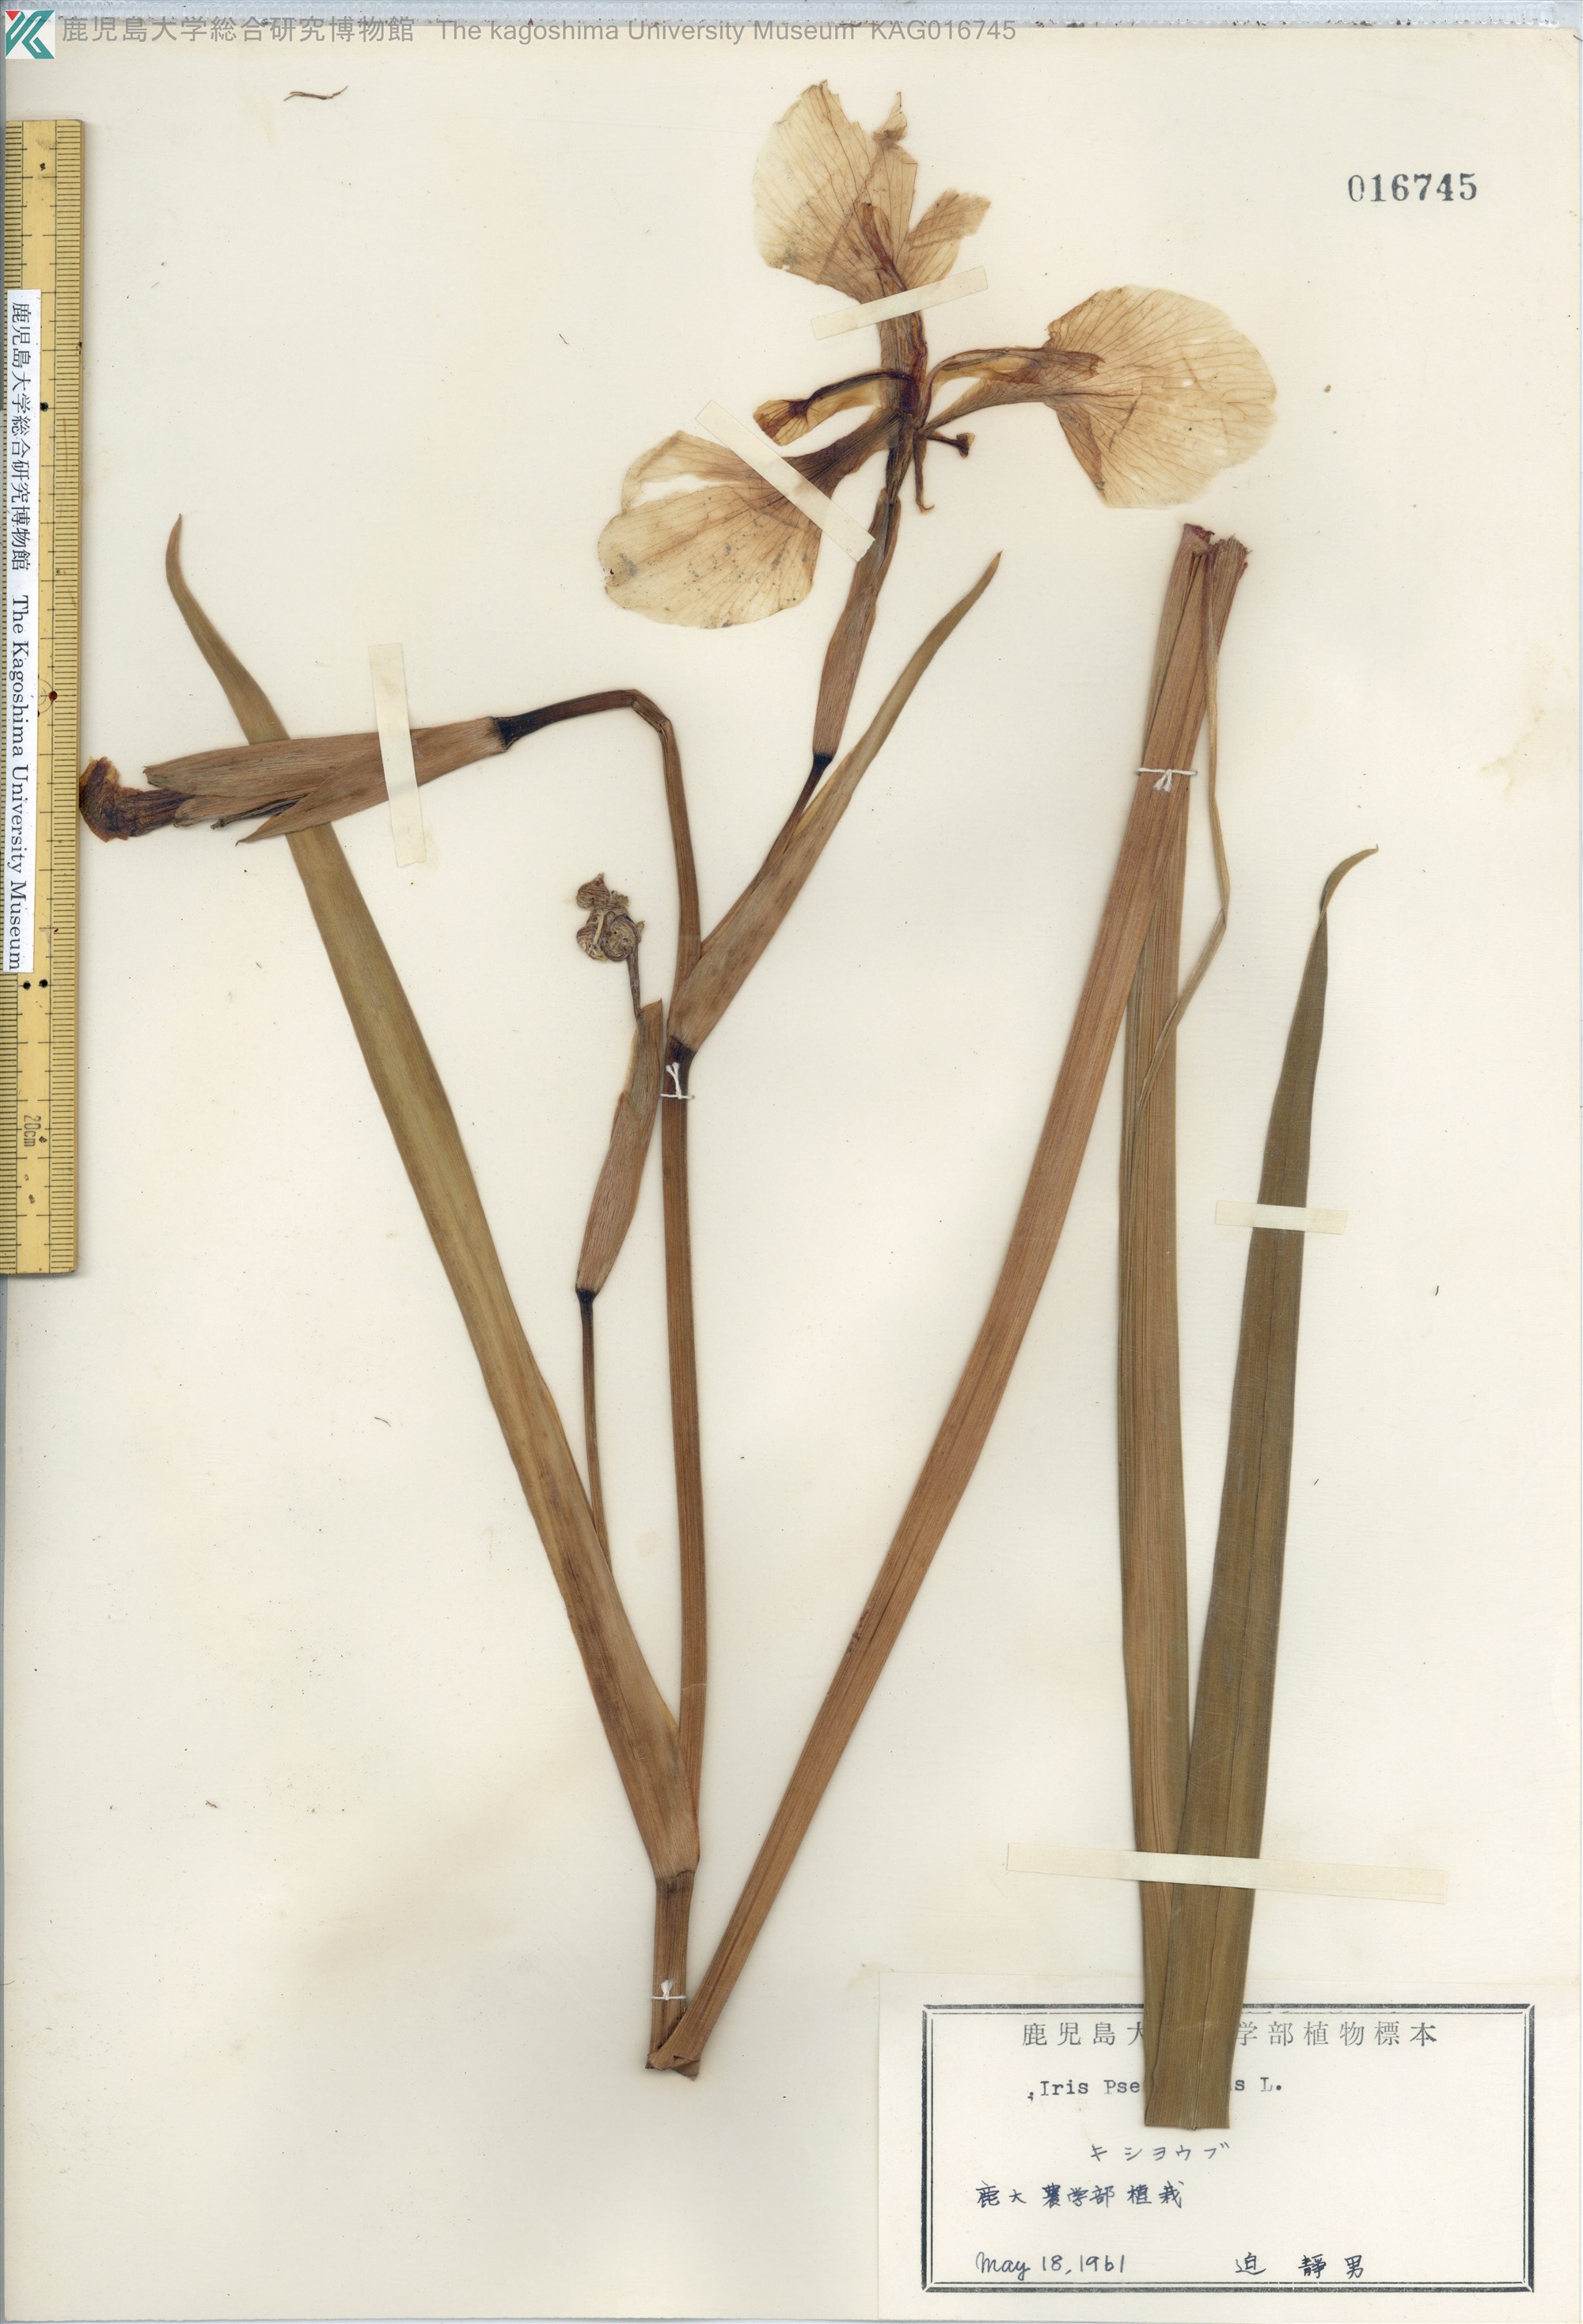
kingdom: Plantae
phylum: Tracheophyta
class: Liliopsida
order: Asparagales
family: Iridaceae
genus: Iris
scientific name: Iris pseudacorus
